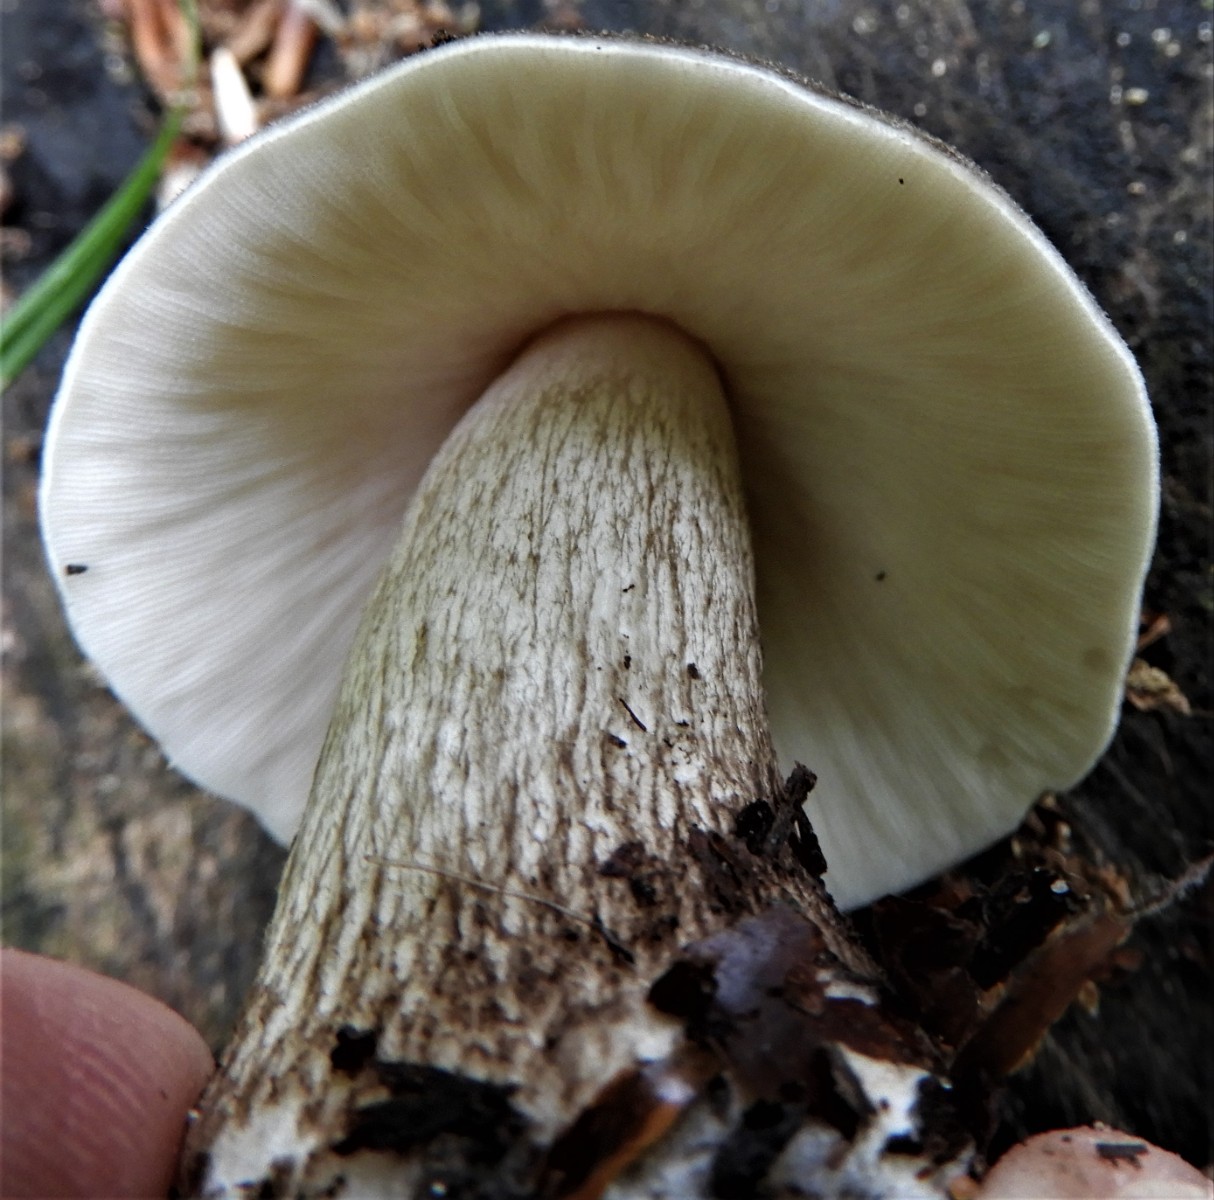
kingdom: Fungi
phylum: Basidiomycota
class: Agaricomycetes
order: Agaricales
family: Pluteaceae
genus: Pluteus
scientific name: Pluteus cervinus
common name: sodfarvet skærmhat
